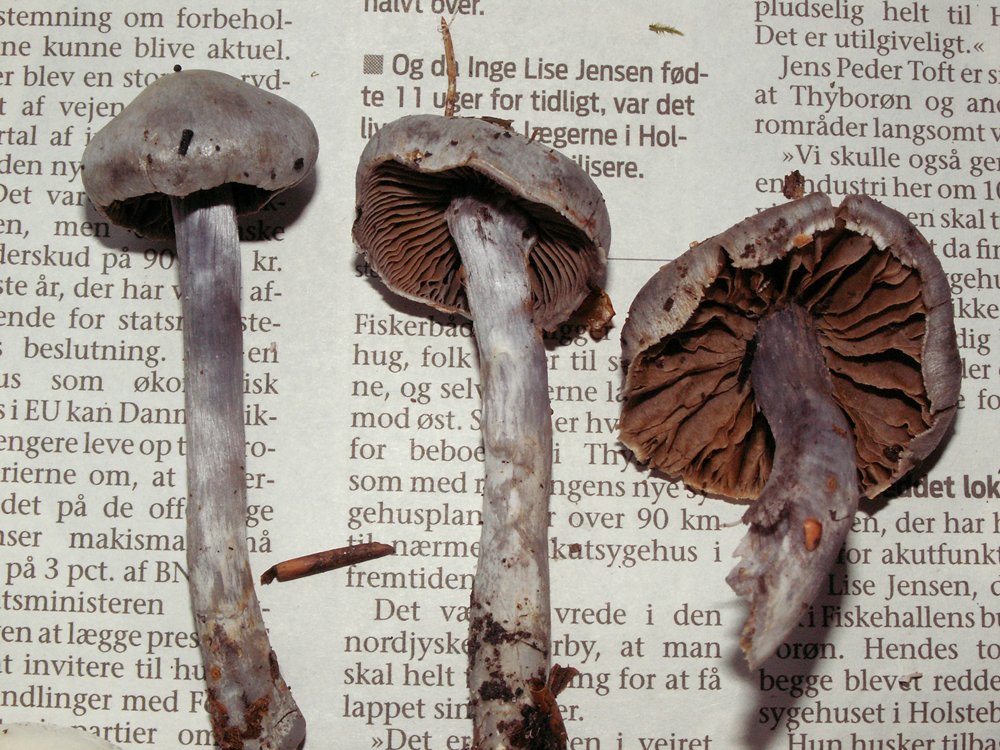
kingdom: Fungi
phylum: Basidiomycota
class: Agaricomycetes
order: Agaricales
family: Cortinariaceae
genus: Cortinarius
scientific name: Cortinarius alboviolaceus
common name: lysviolet slørhat
